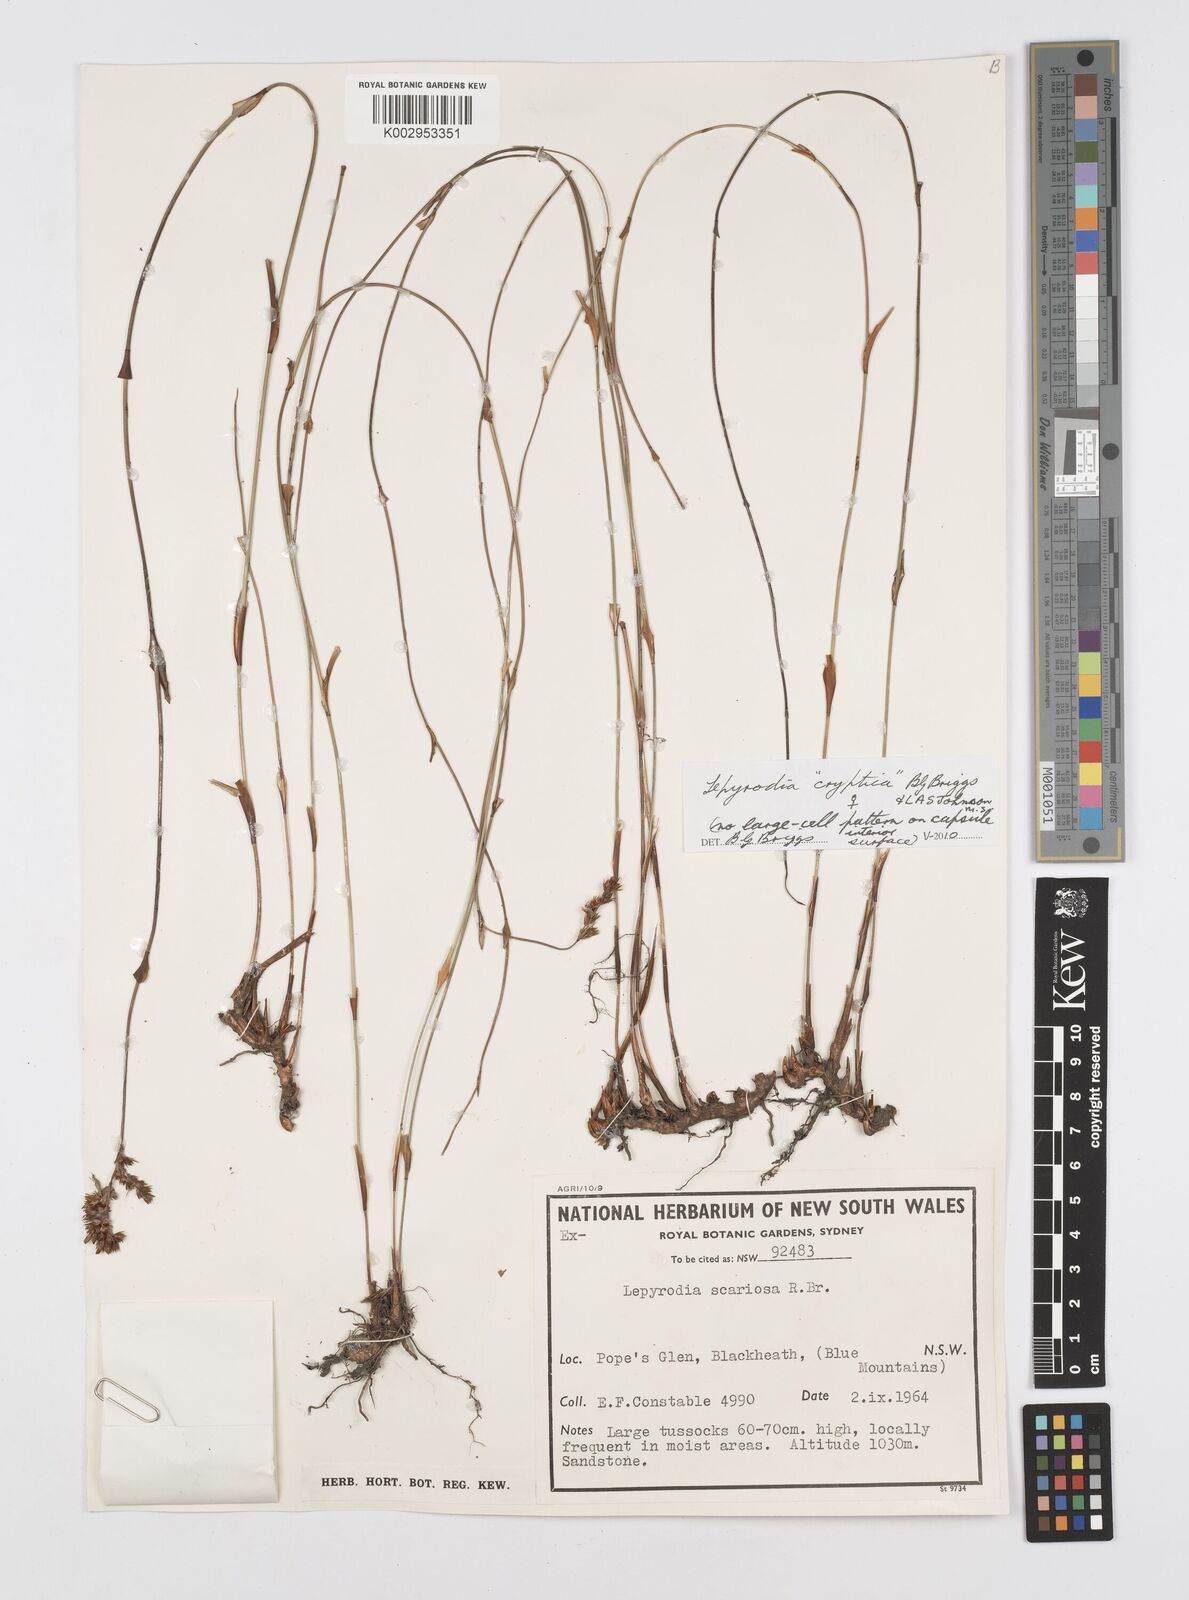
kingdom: Plantae
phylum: Tracheophyta
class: Liliopsida
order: Poales
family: Restionaceae
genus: Lepyrodia
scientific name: Lepyrodia cryptica
